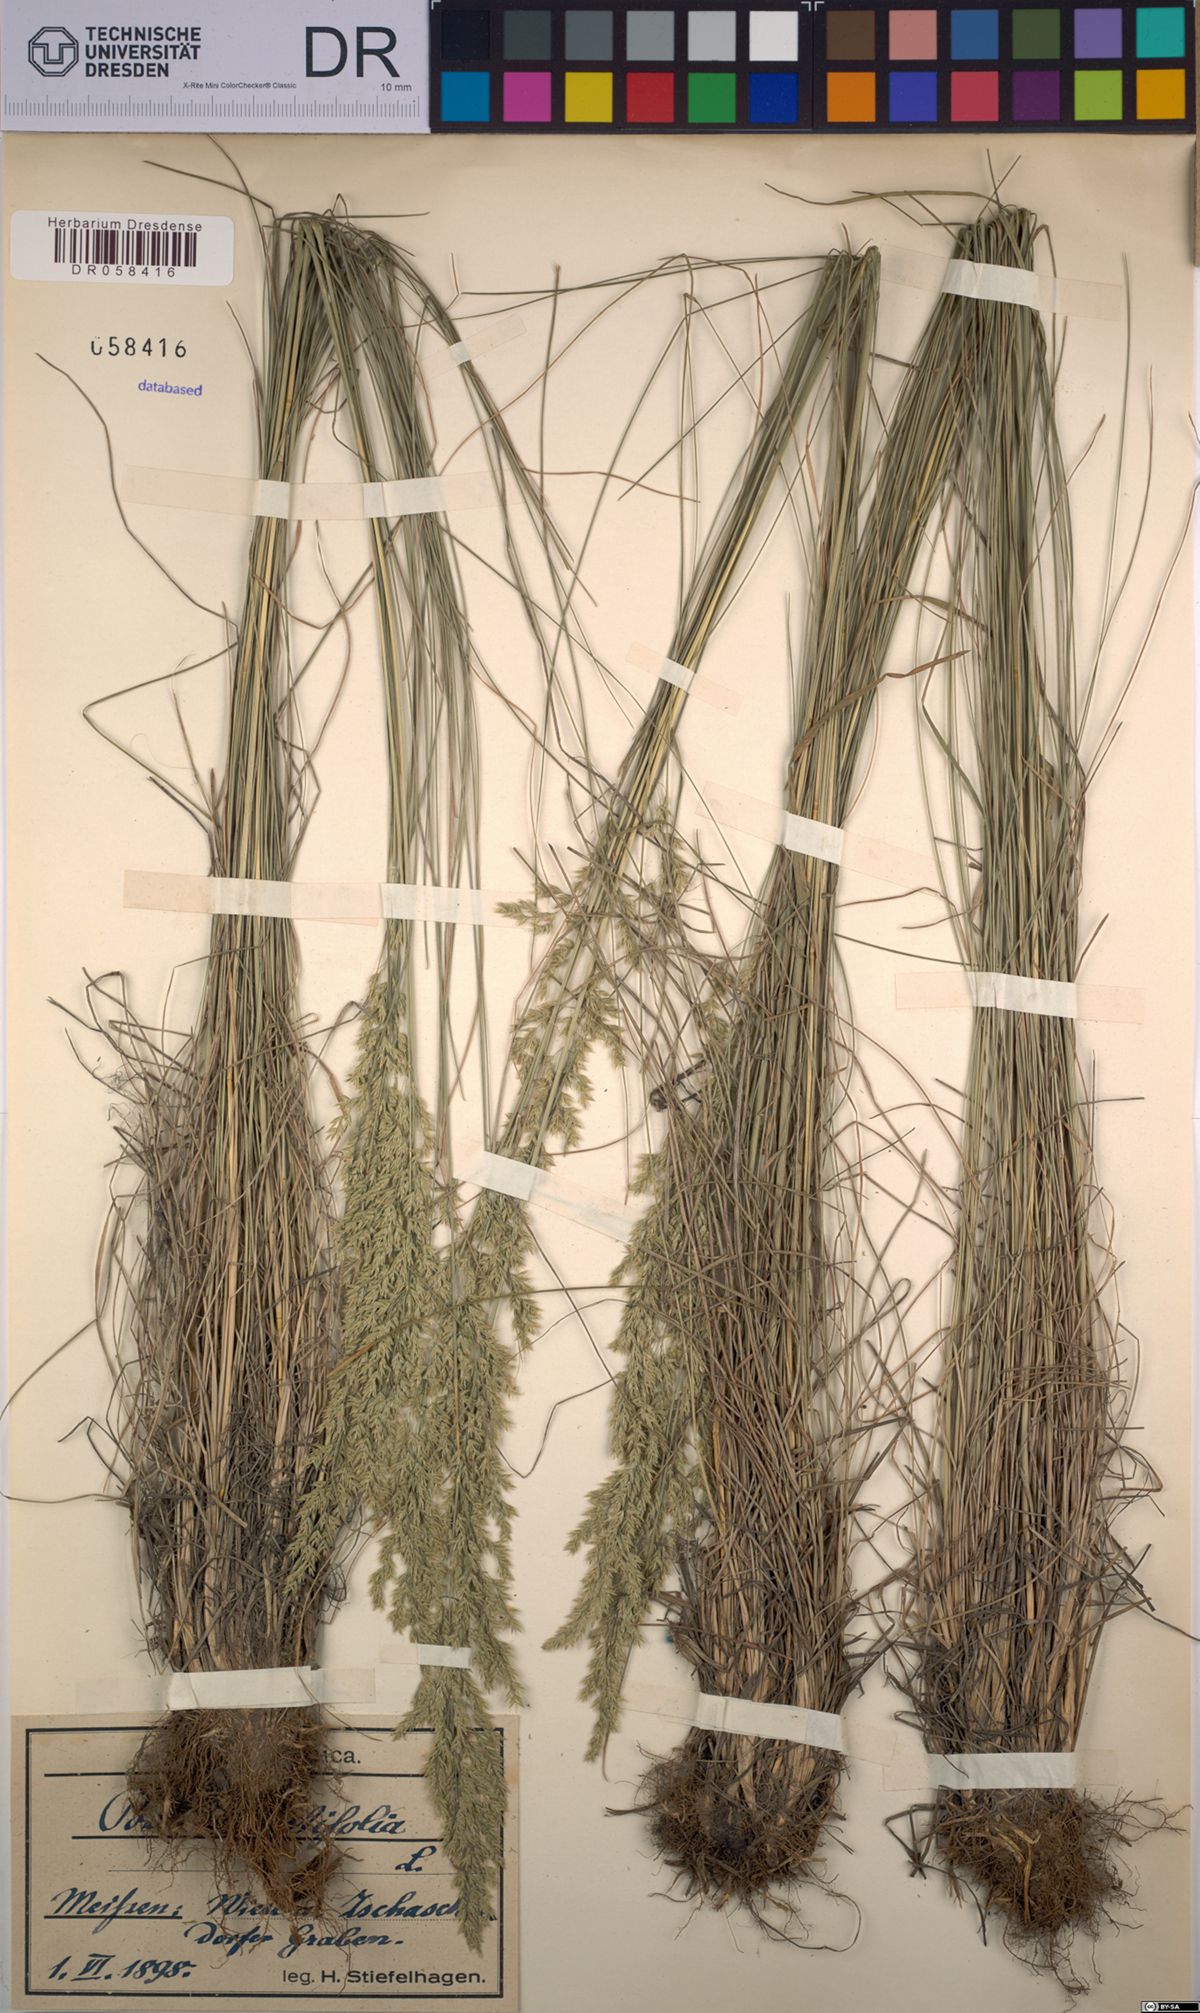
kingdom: Plantae
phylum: Tracheophyta
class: Liliopsida
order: Poales
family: Poaceae
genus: Poa
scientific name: Poa angustifolia
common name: Narrow-leaved meadow-grass
